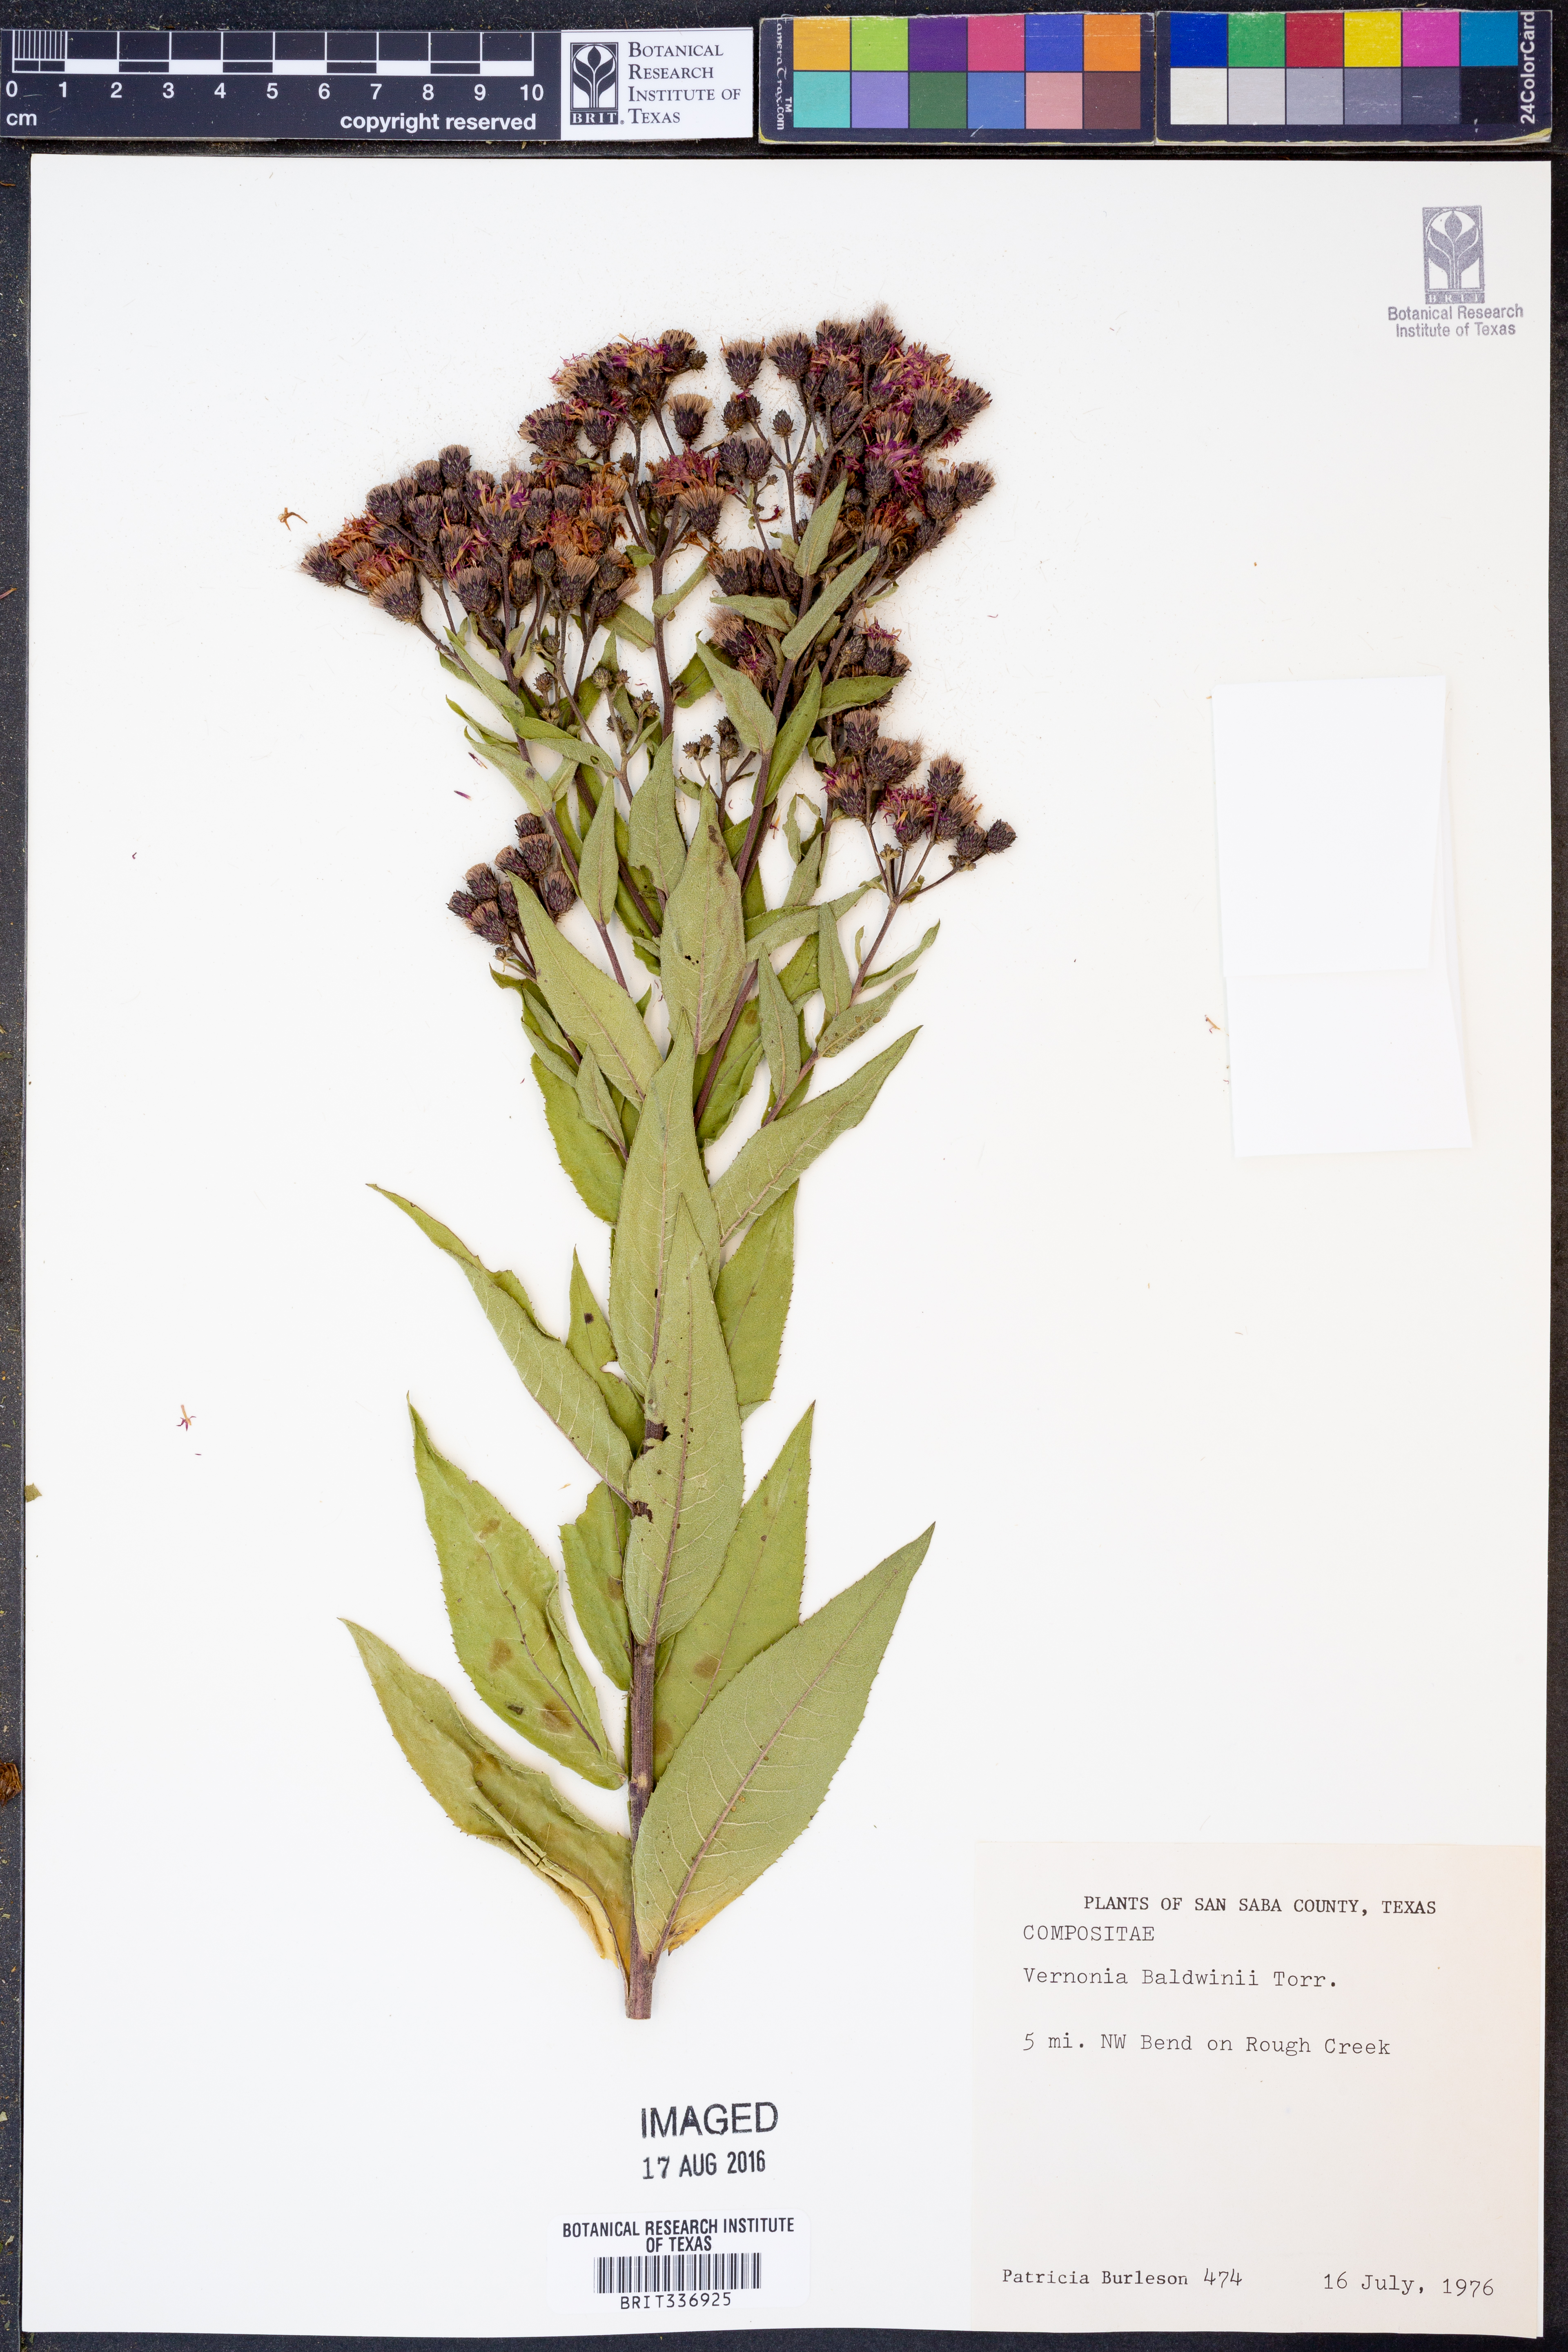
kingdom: Plantae
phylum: Tracheophyta
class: Magnoliopsida
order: Asterales
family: Asteraceae
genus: Vernonia
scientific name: Vernonia baldwinii
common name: Western ironweed
